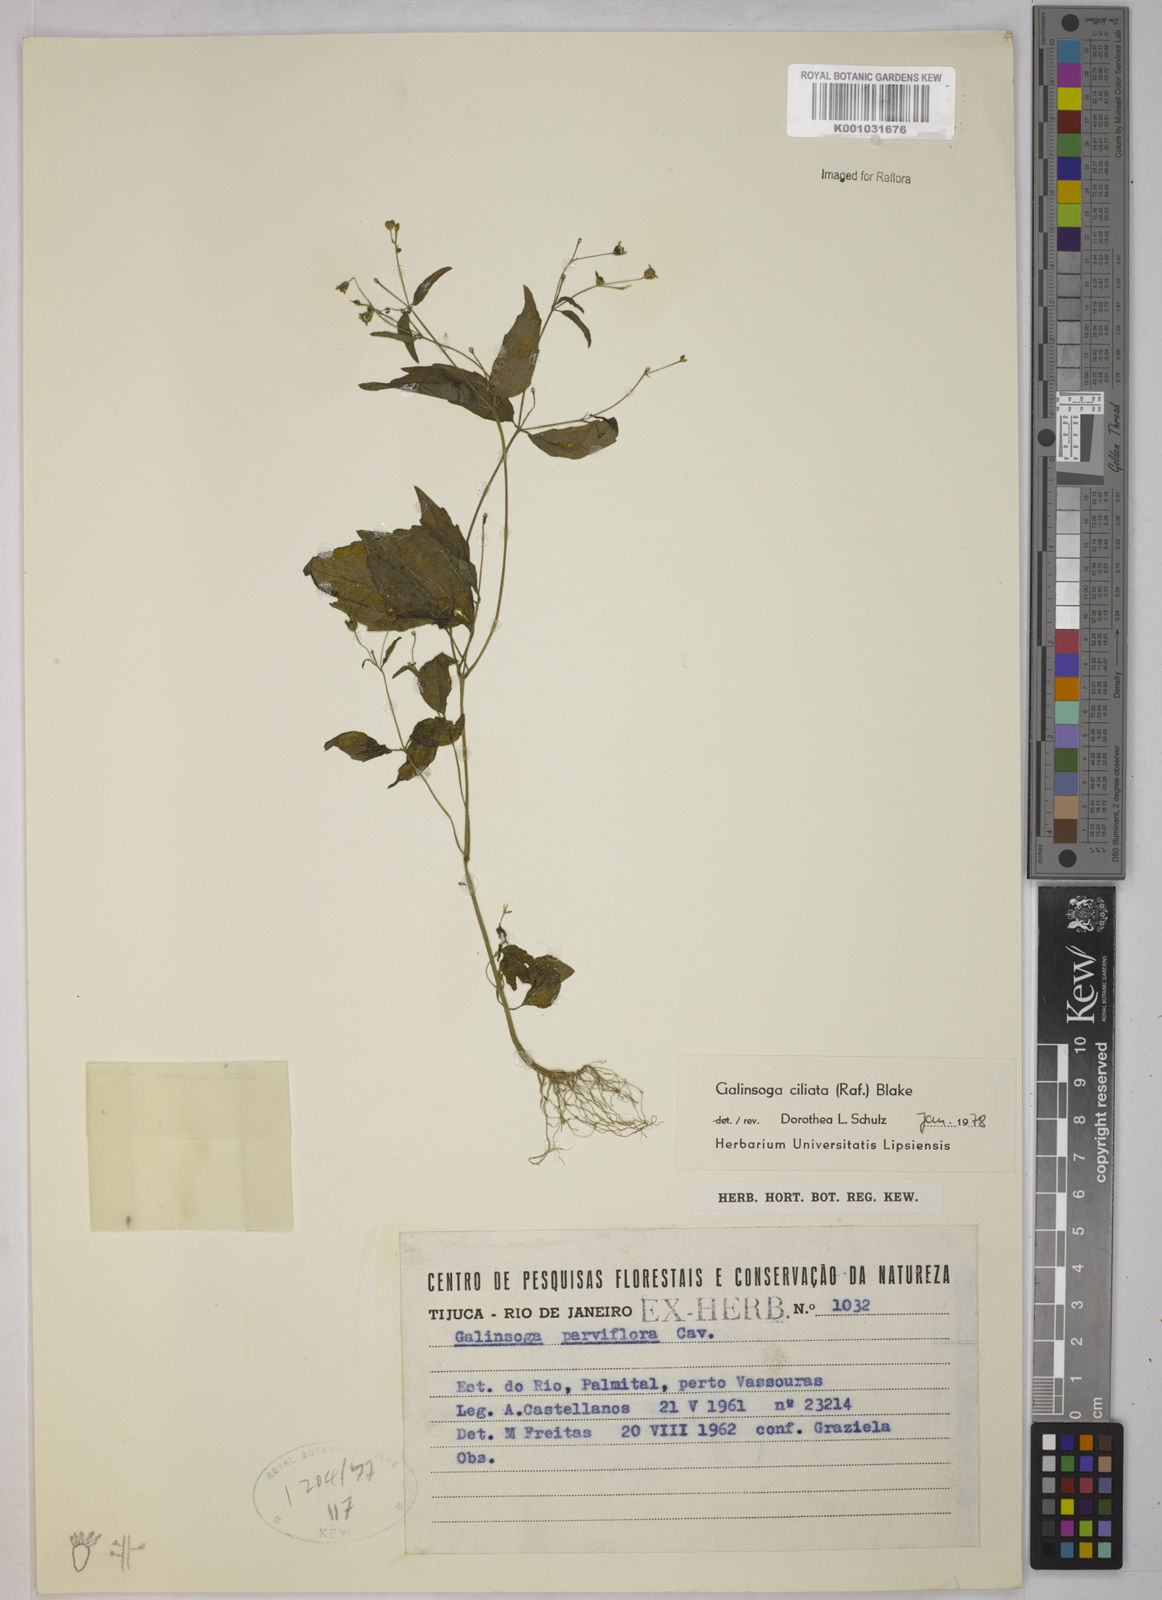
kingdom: Plantae
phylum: Tracheophyta
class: Magnoliopsida
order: Asterales
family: Asteraceae
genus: Galinsoga
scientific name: Galinsoga quadriradiata
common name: Shaggy soldier
